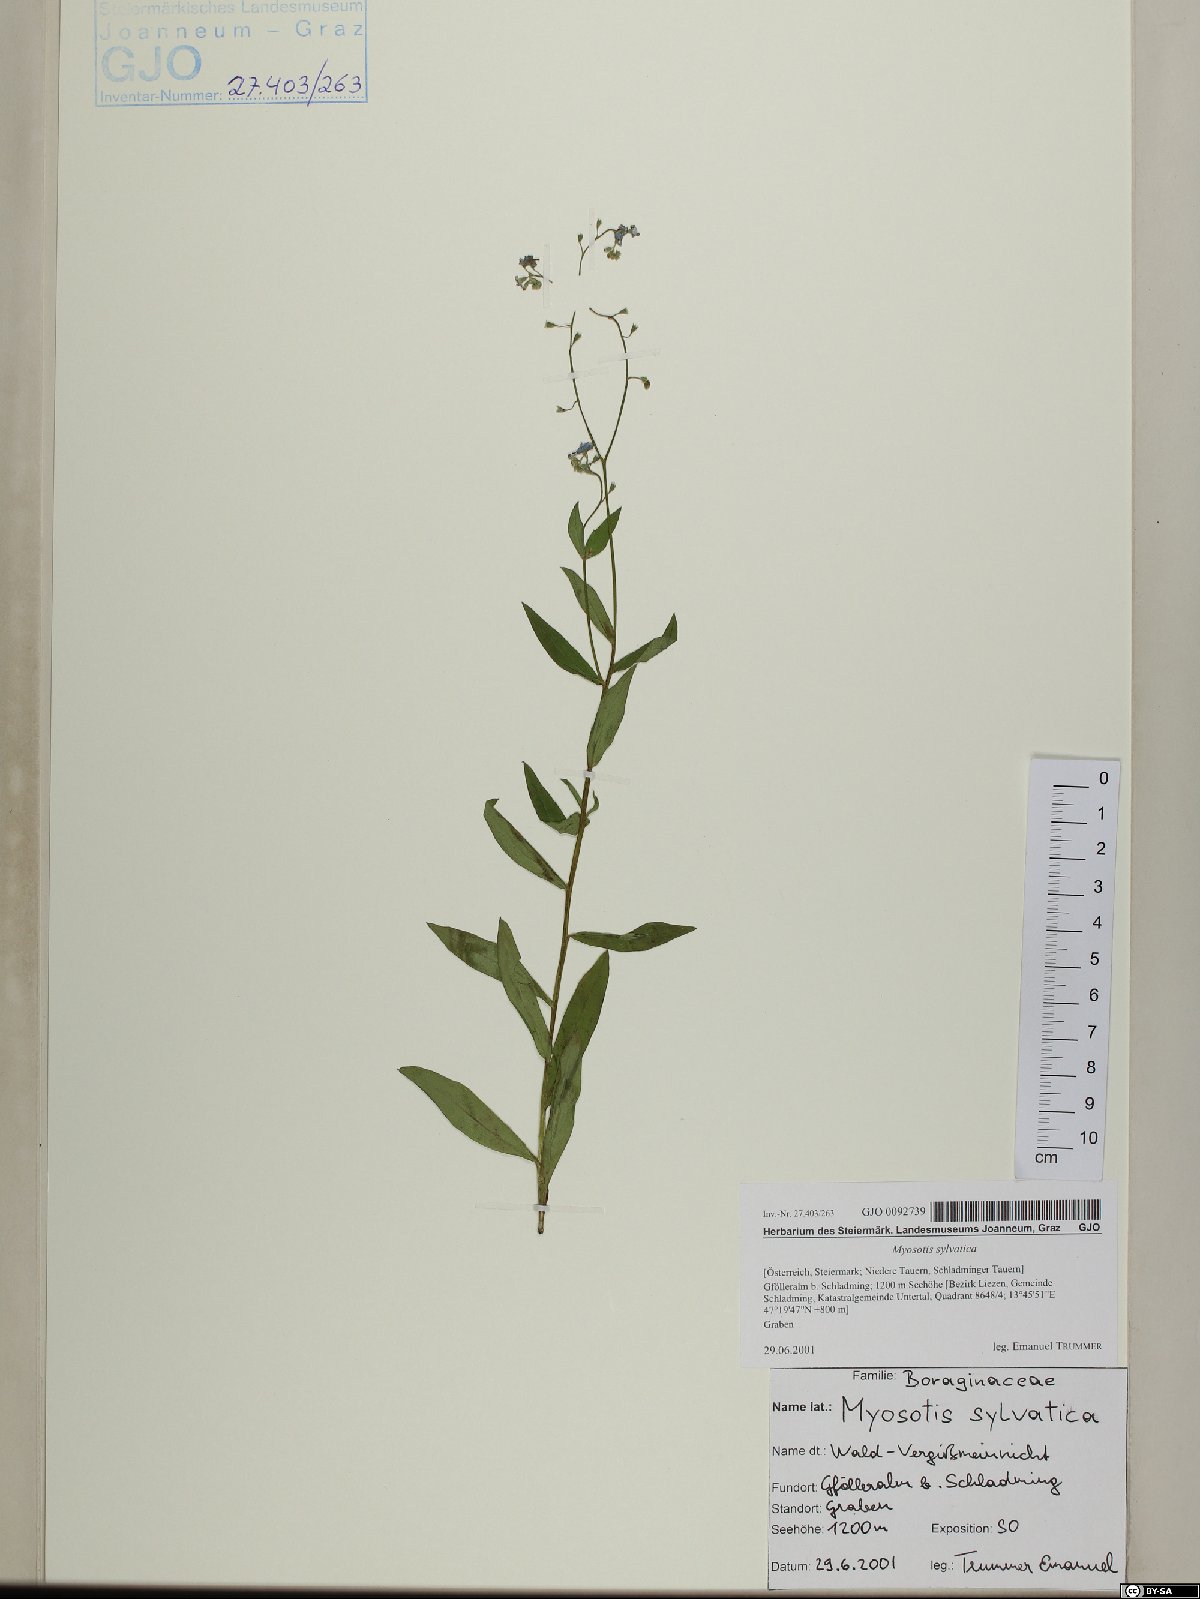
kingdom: Plantae
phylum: Tracheophyta
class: Magnoliopsida
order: Boraginales
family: Boraginaceae
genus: Myosotis
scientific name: Myosotis sylvatica
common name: Wood forget-me-not
